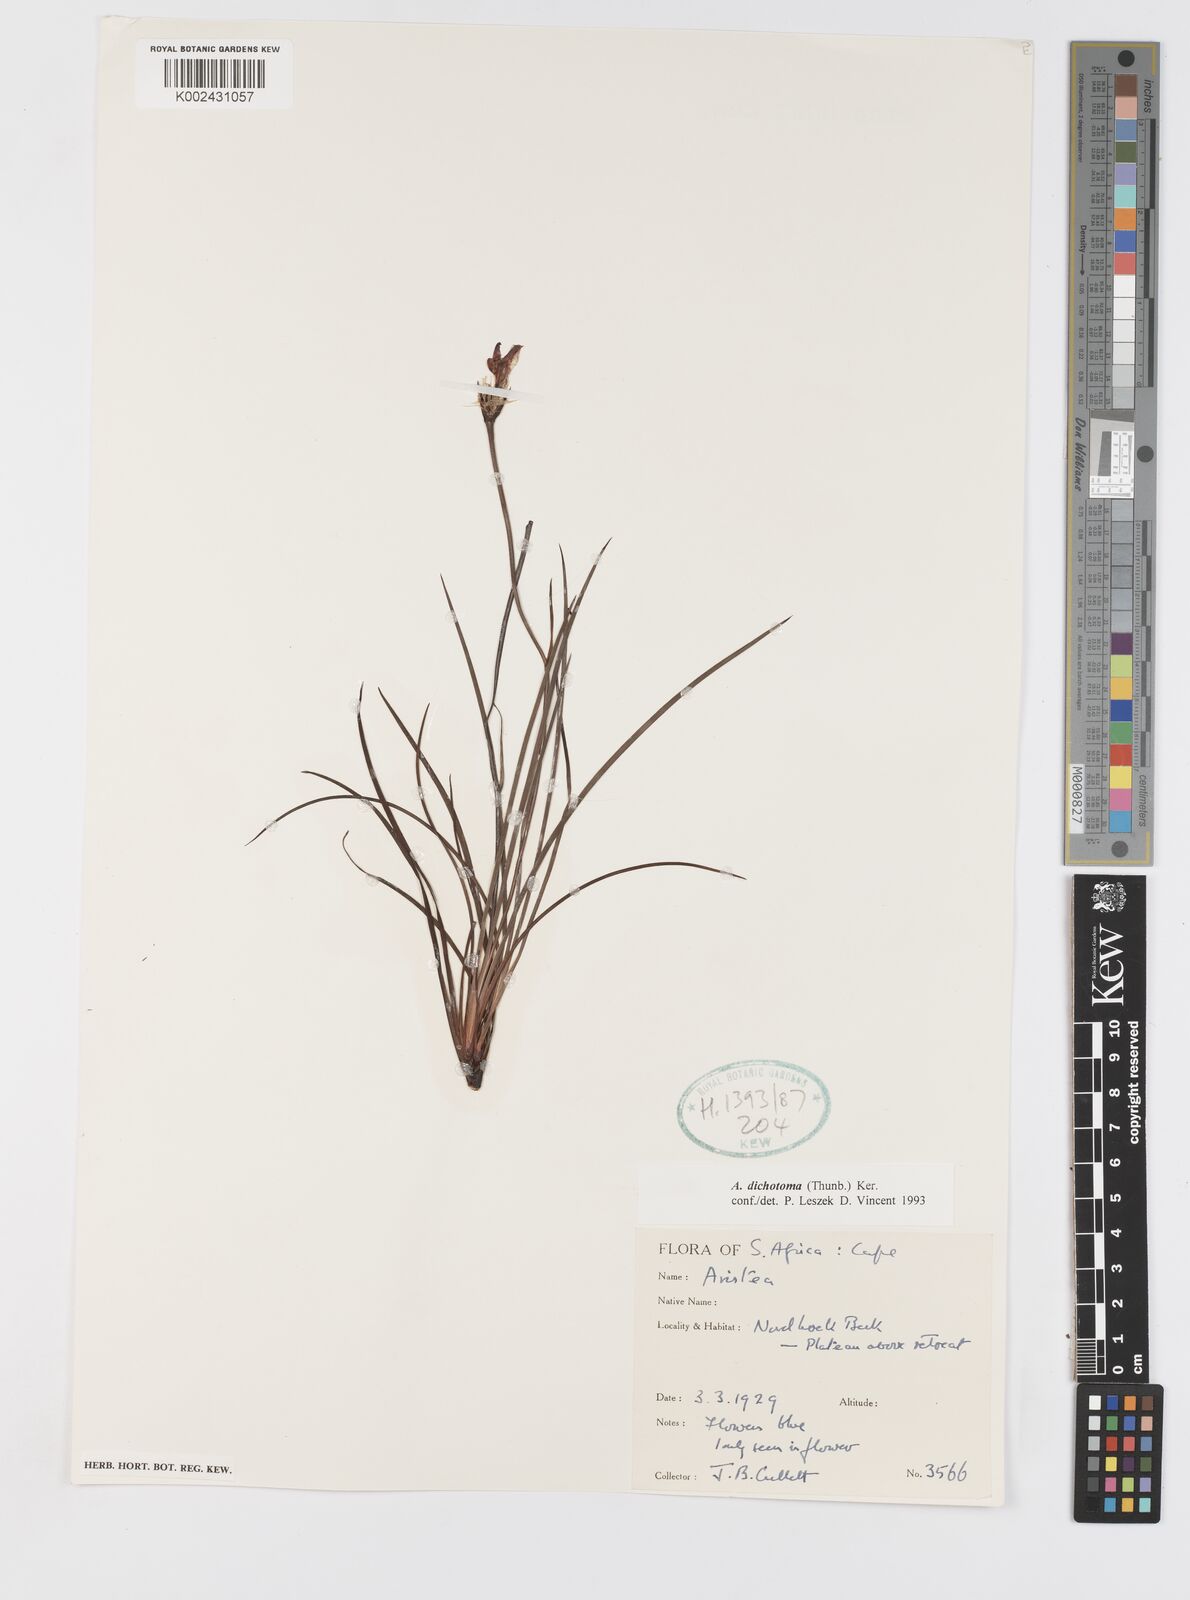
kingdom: Plantae
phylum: Tracheophyta
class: Liliopsida
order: Asparagales
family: Iridaceae
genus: Aristea
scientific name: Aristea dichotoma
